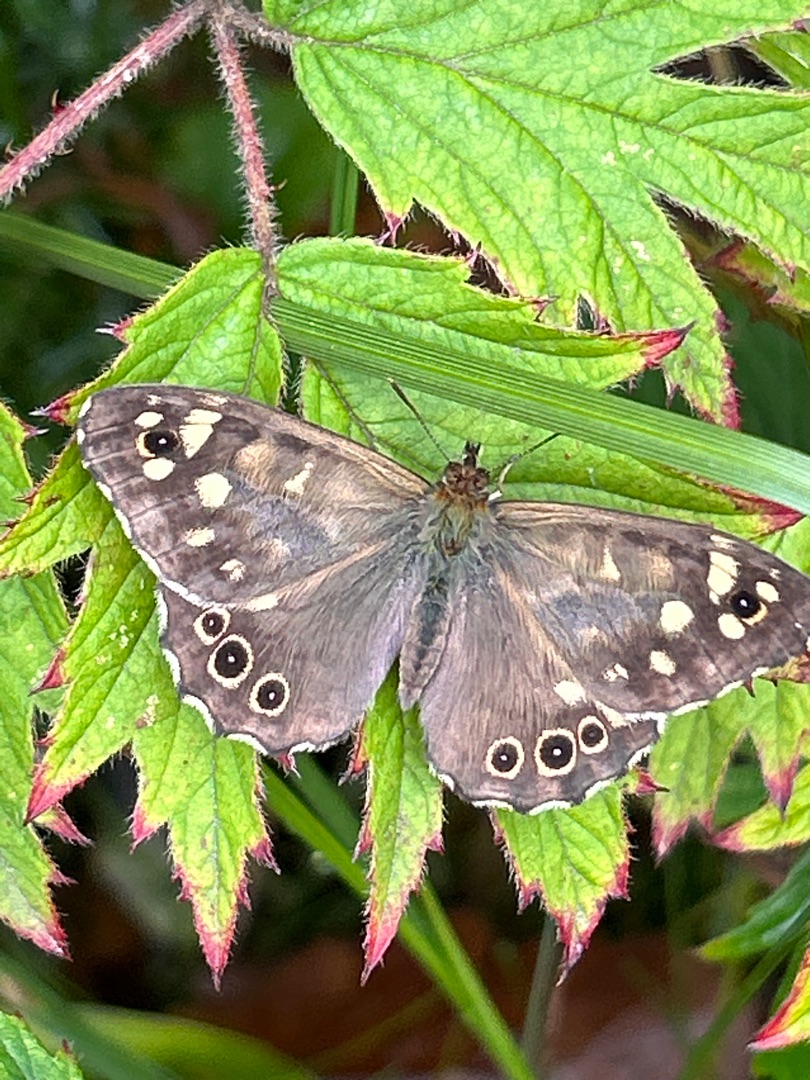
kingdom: Animalia
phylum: Arthropoda
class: Insecta
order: Lepidoptera
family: Nymphalidae
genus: Pararge
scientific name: Pararge aegeria
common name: Skovrandøje
